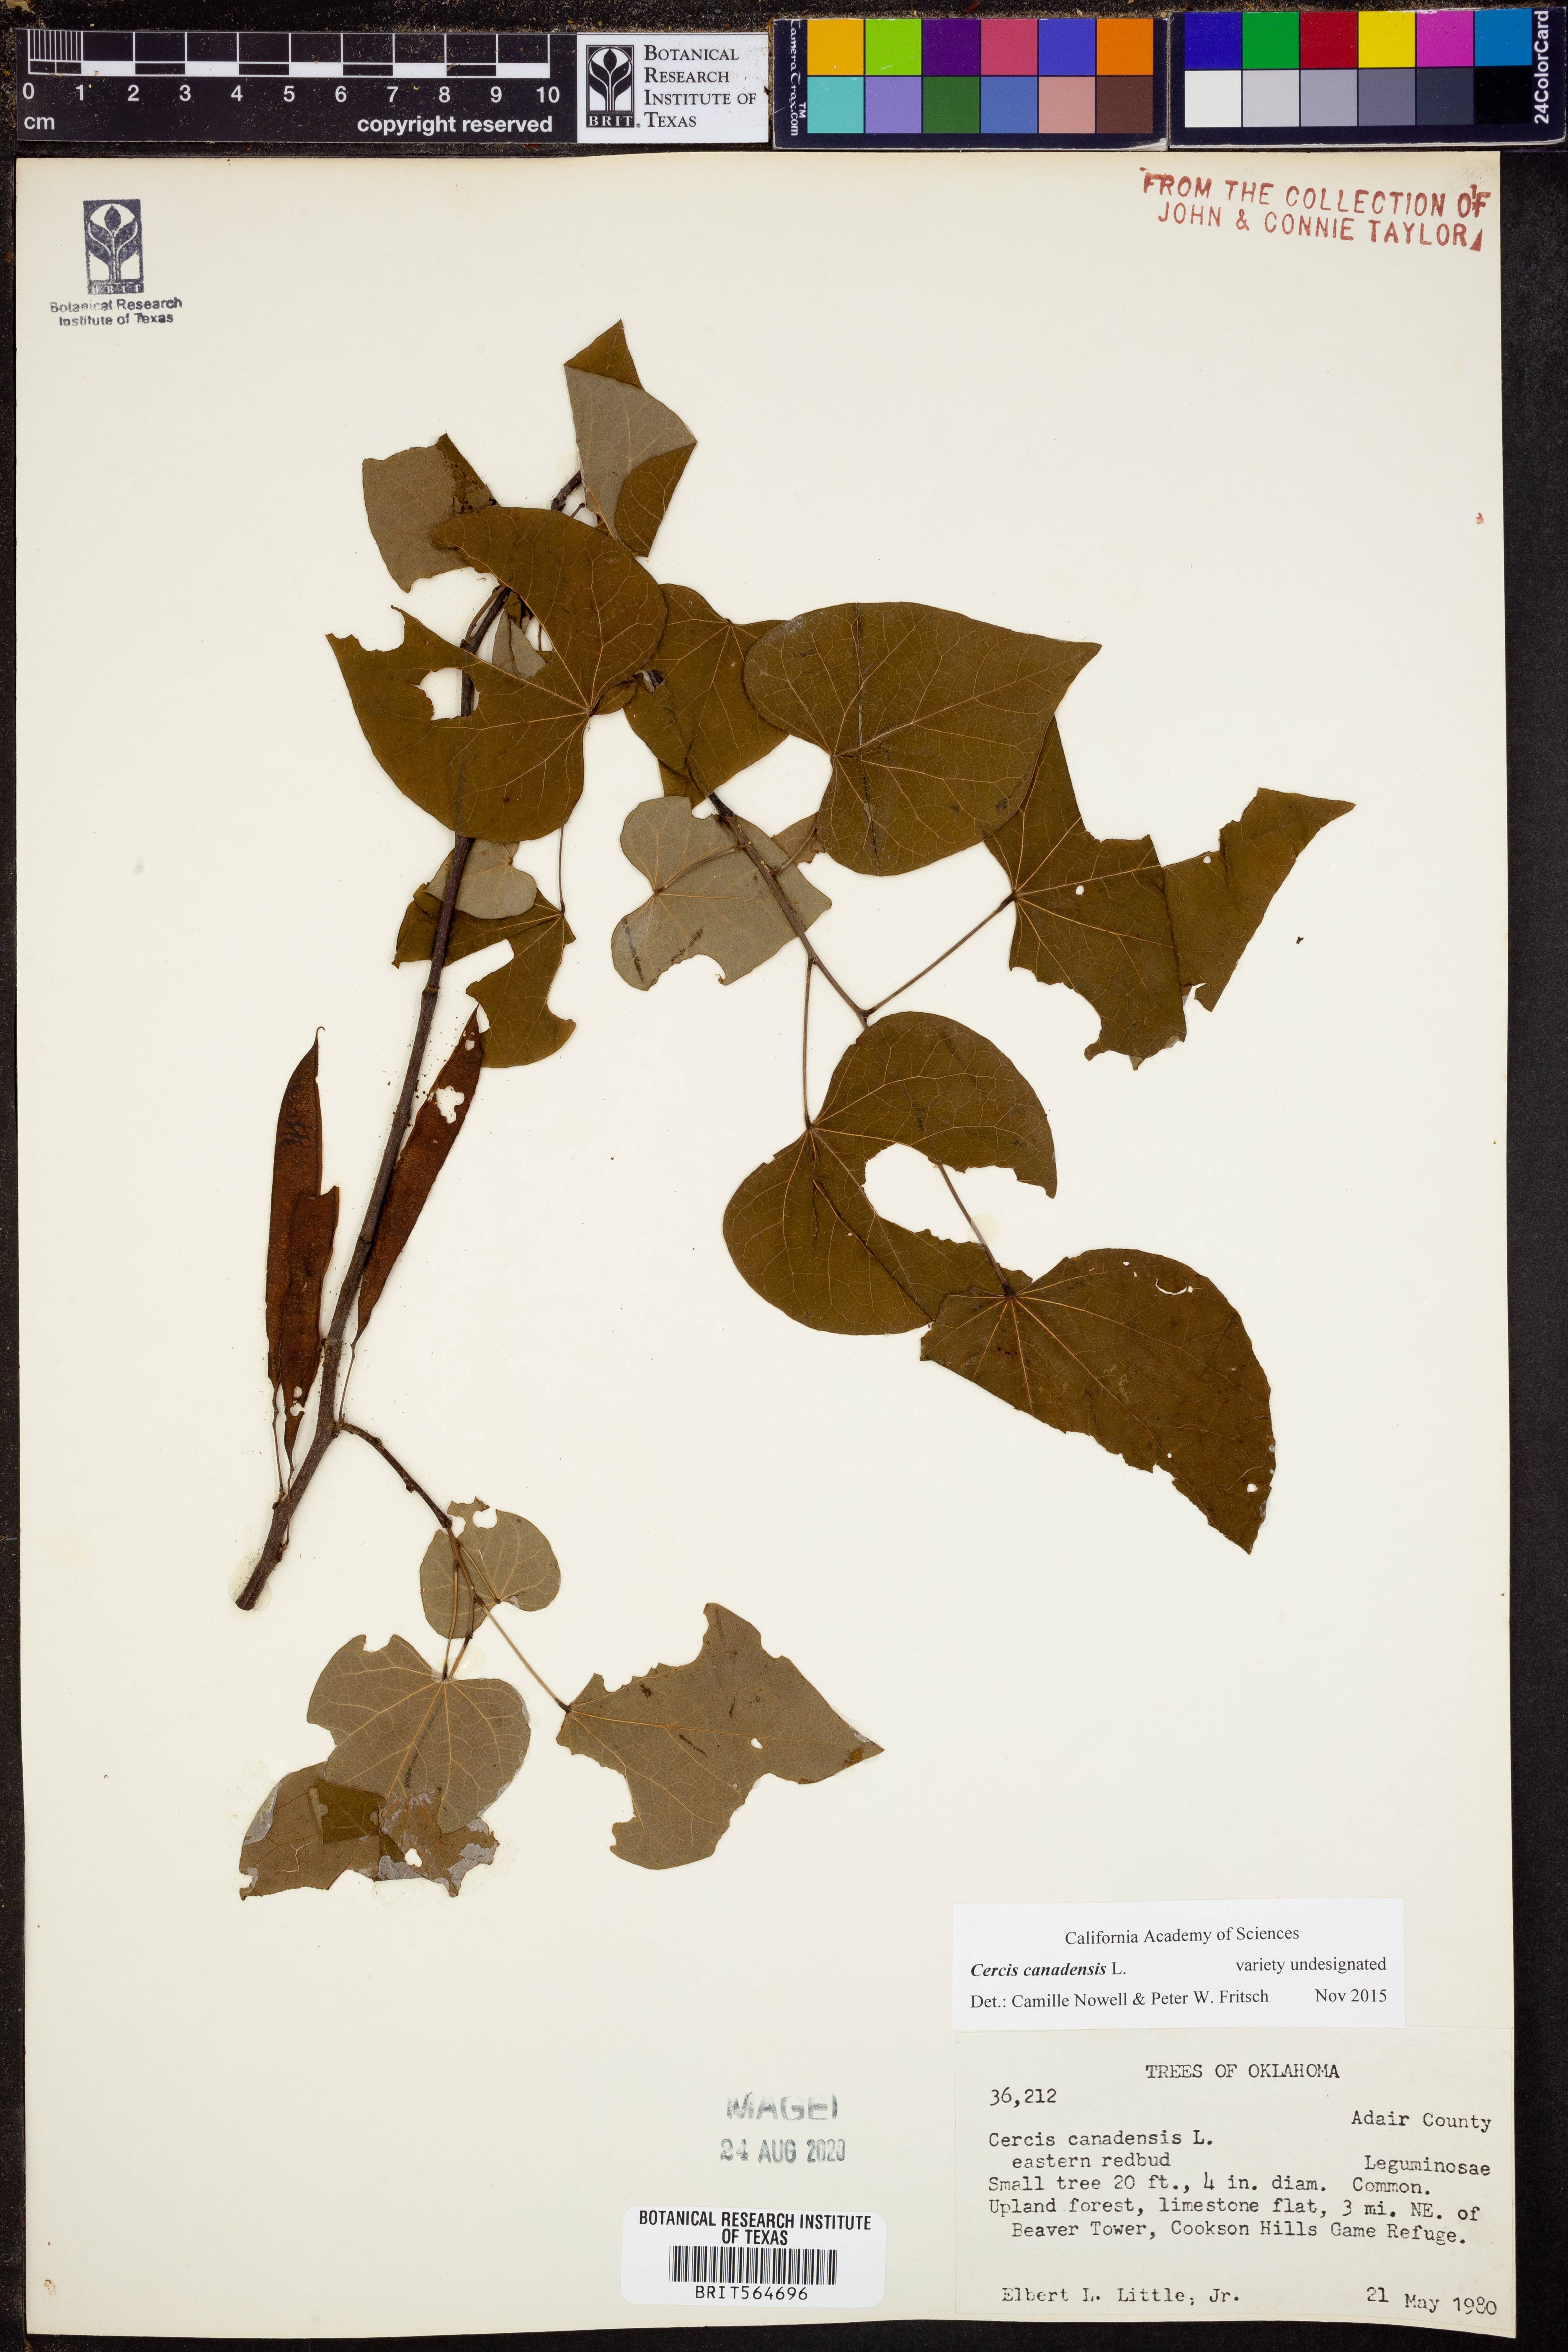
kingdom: Plantae
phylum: Tracheophyta
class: Magnoliopsida
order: Fabales
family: Fabaceae
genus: Cercis
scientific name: Cercis canadensis
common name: Eastern redbud
